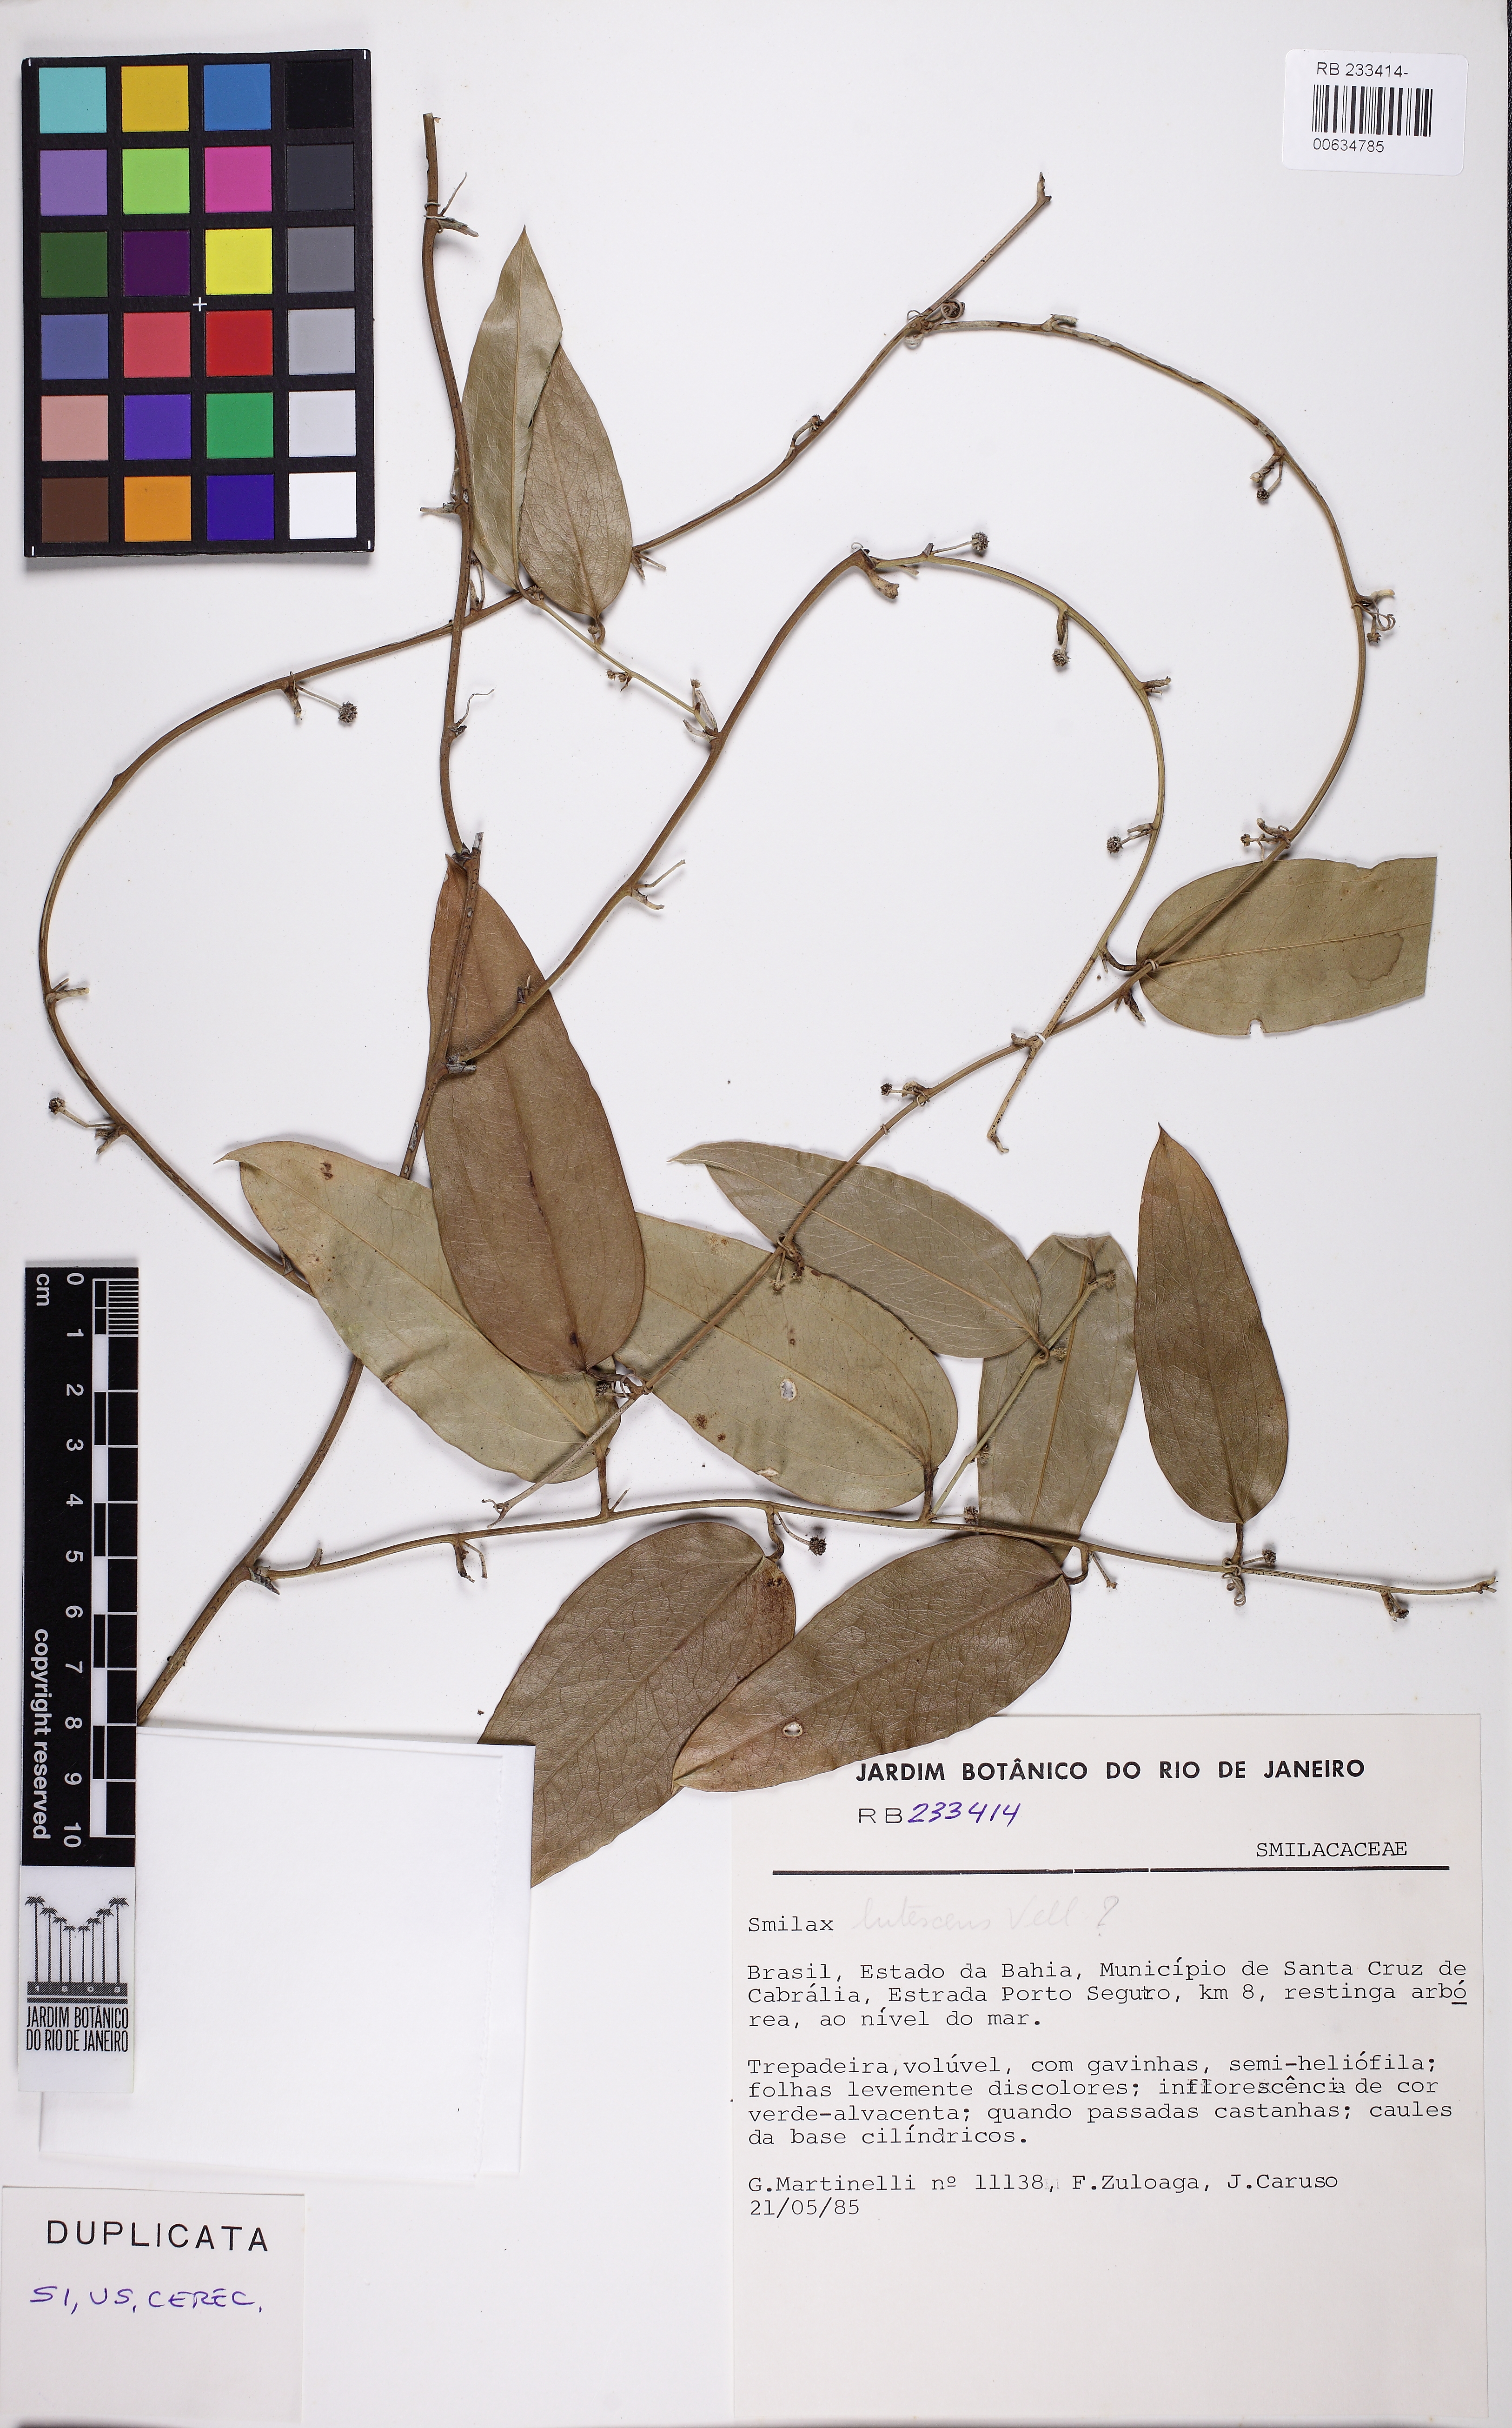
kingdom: Plantae
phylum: Tracheophyta
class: Liliopsida
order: Liliales
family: Smilacaceae
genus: Smilax
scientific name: Smilax
